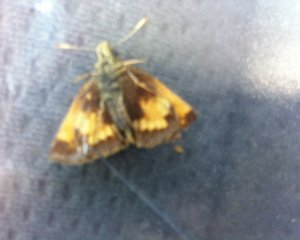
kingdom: Animalia
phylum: Arthropoda
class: Insecta
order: Lepidoptera
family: Hesperiidae
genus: Lon
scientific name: Lon hobomok
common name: Hobomok Skipper
